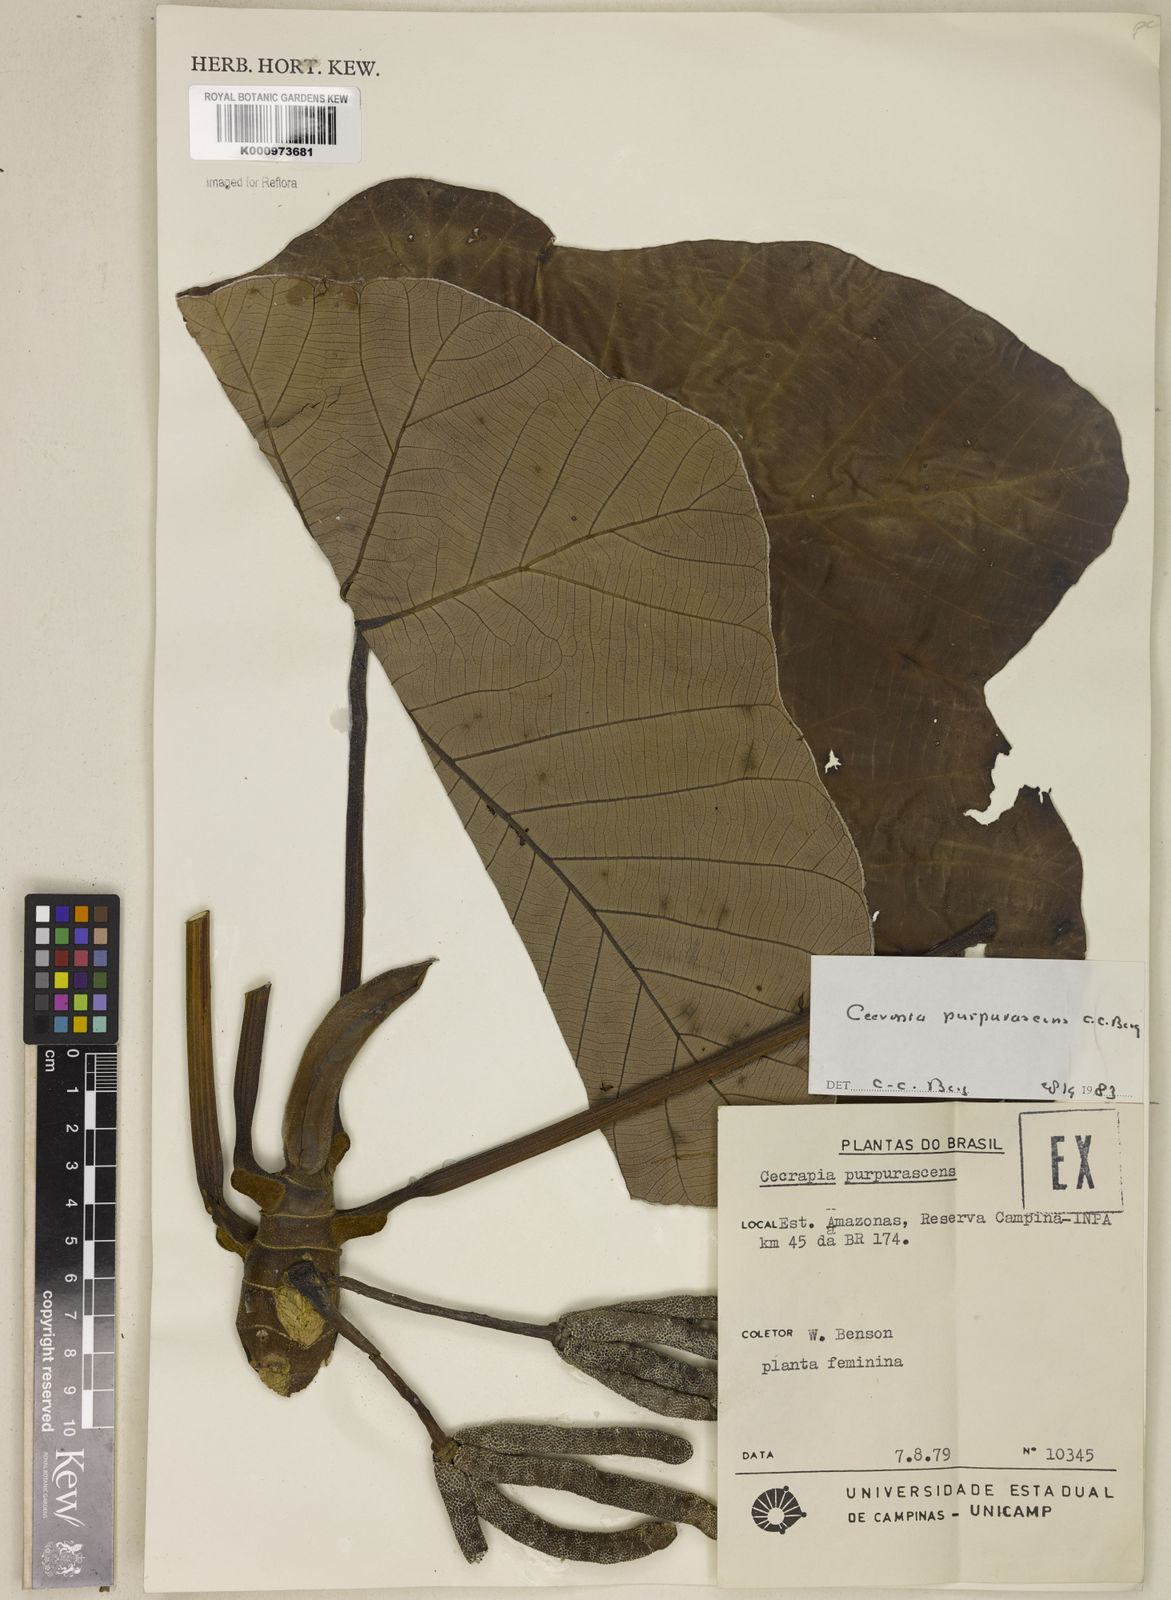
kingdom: Plantae
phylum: Tracheophyta
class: Magnoliopsida
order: Rosales
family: Urticaceae
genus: Cecropia
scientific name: Cecropia purpurascens
